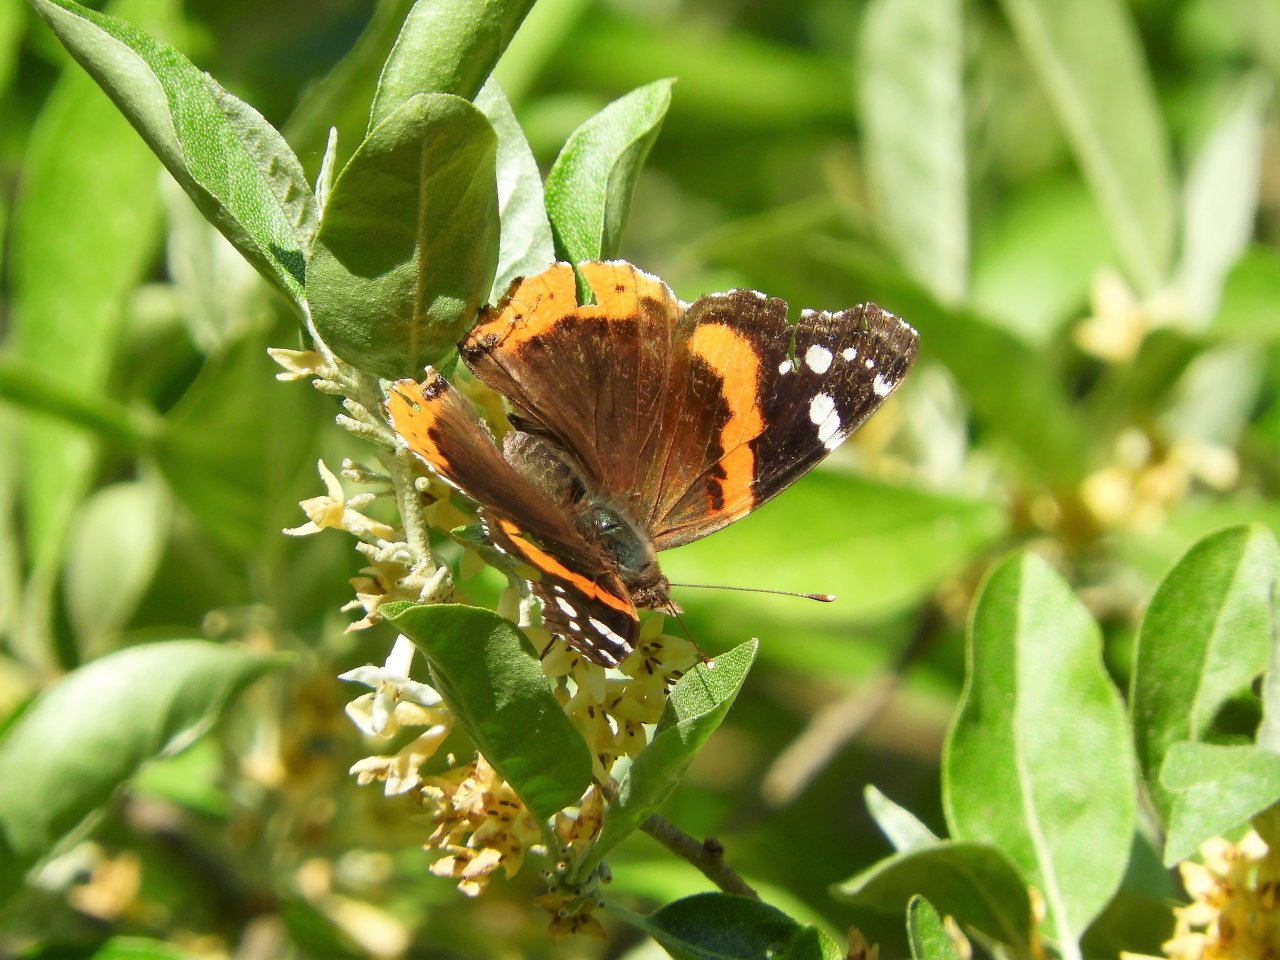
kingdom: Animalia
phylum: Arthropoda
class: Insecta
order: Lepidoptera
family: Nymphalidae
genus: Vanessa
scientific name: Vanessa atalanta
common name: Red Admiral
